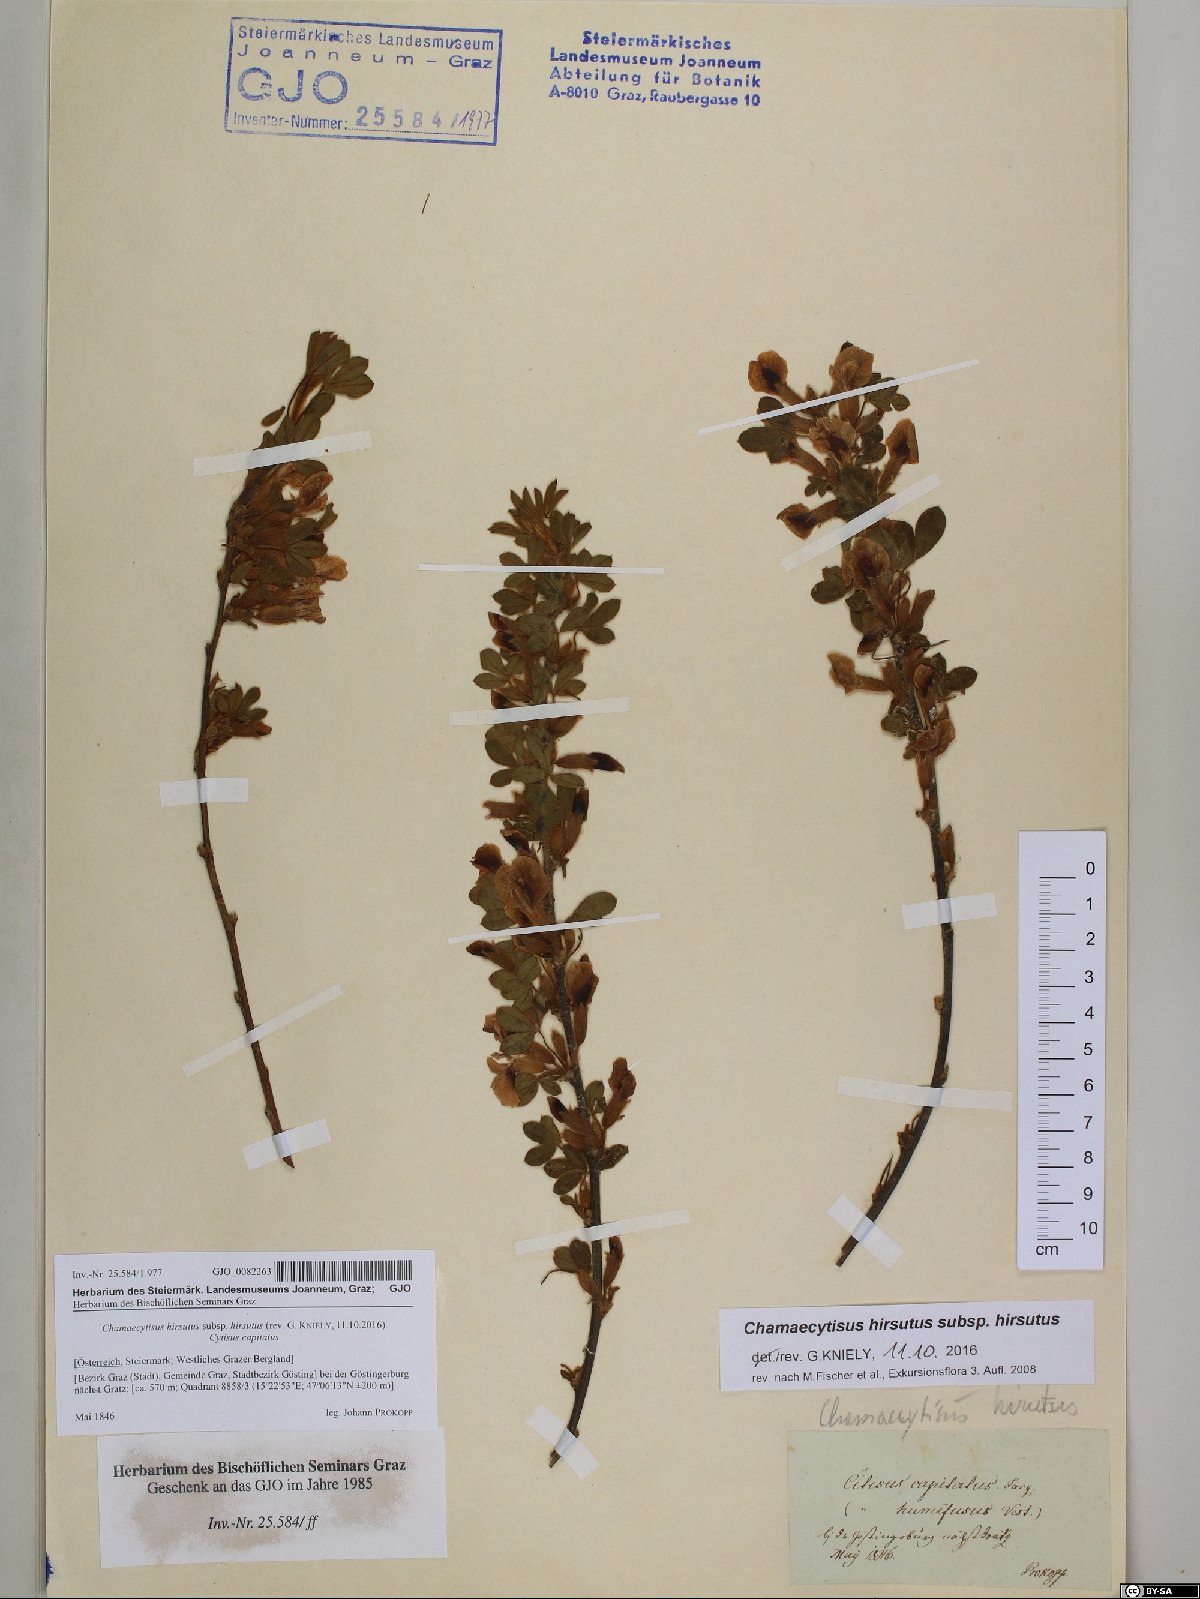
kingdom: Plantae
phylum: Tracheophyta
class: Magnoliopsida
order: Fabales
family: Fabaceae
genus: Chamaecytisus
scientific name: Chamaecytisus hirsutus
